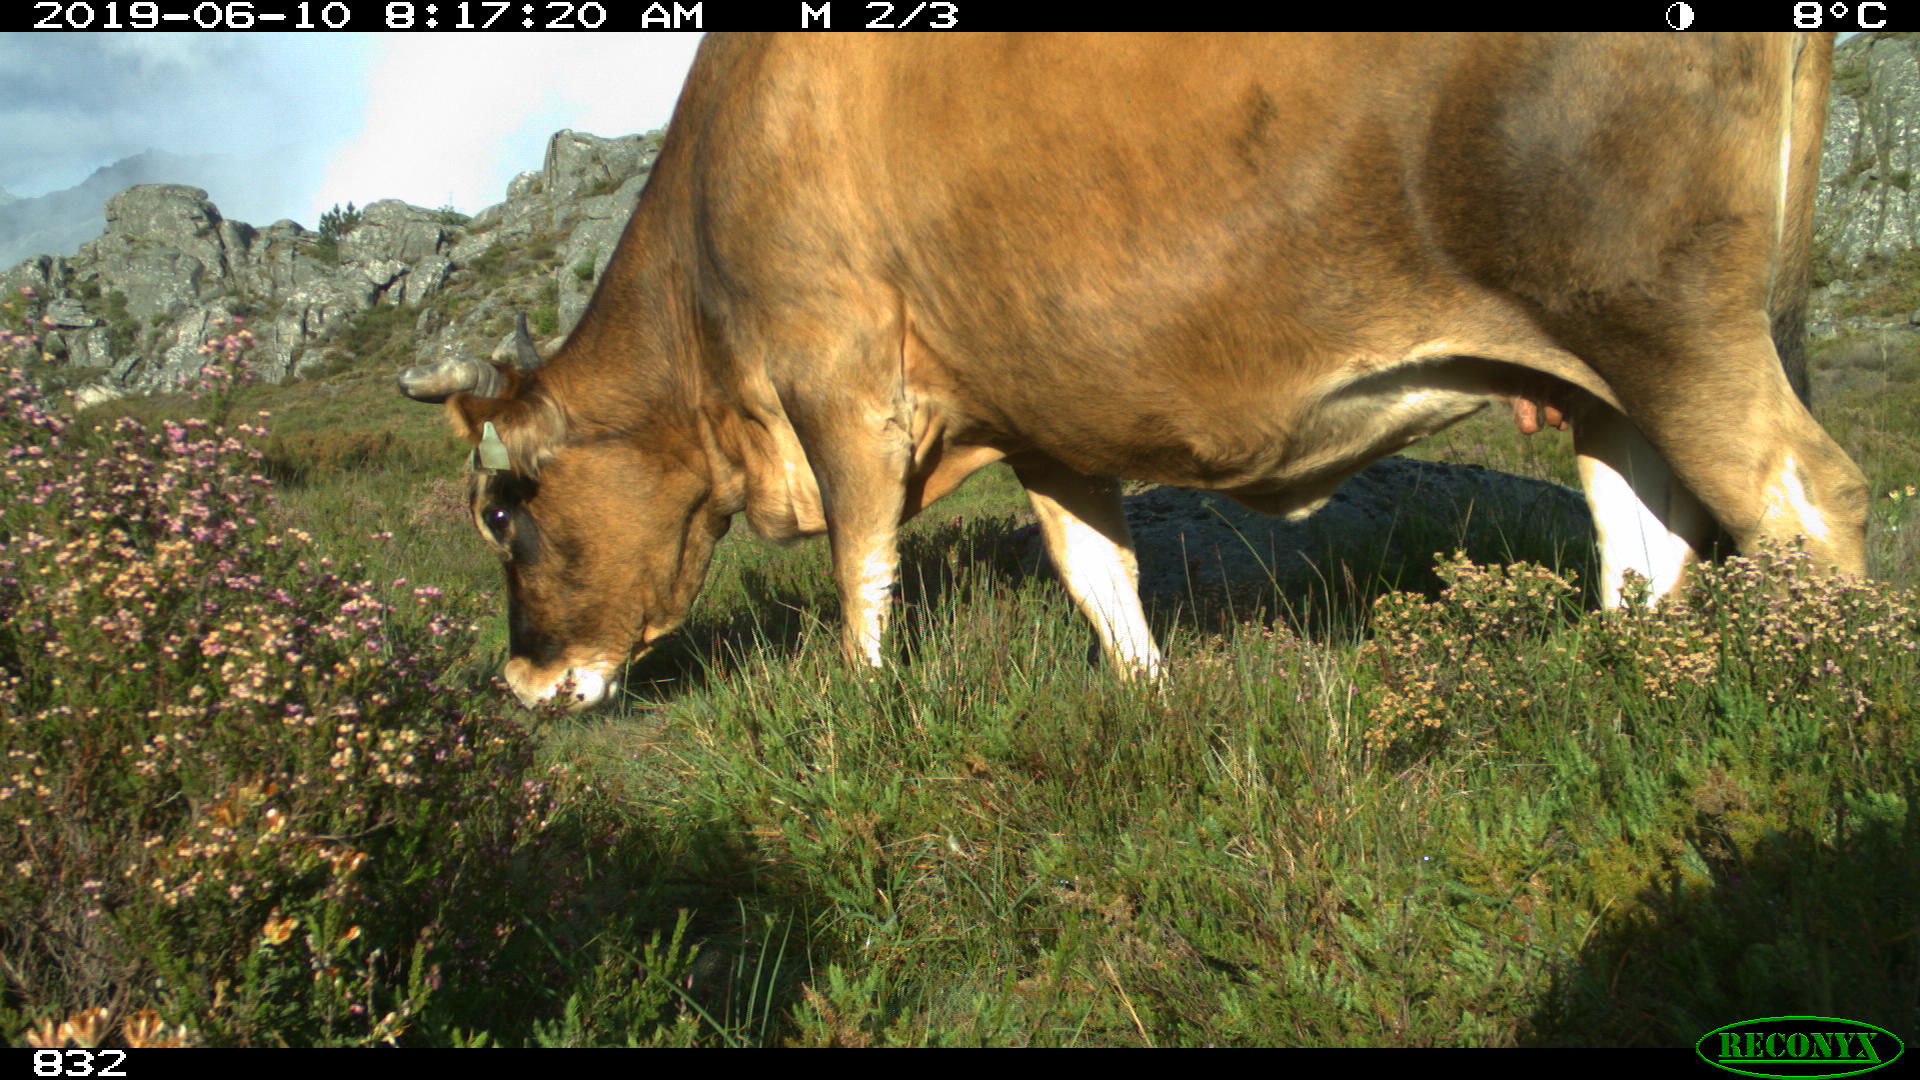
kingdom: Animalia
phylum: Chordata
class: Mammalia
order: Artiodactyla
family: Bovidae
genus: Bos
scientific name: Bos taurus
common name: Domesticated cattle
